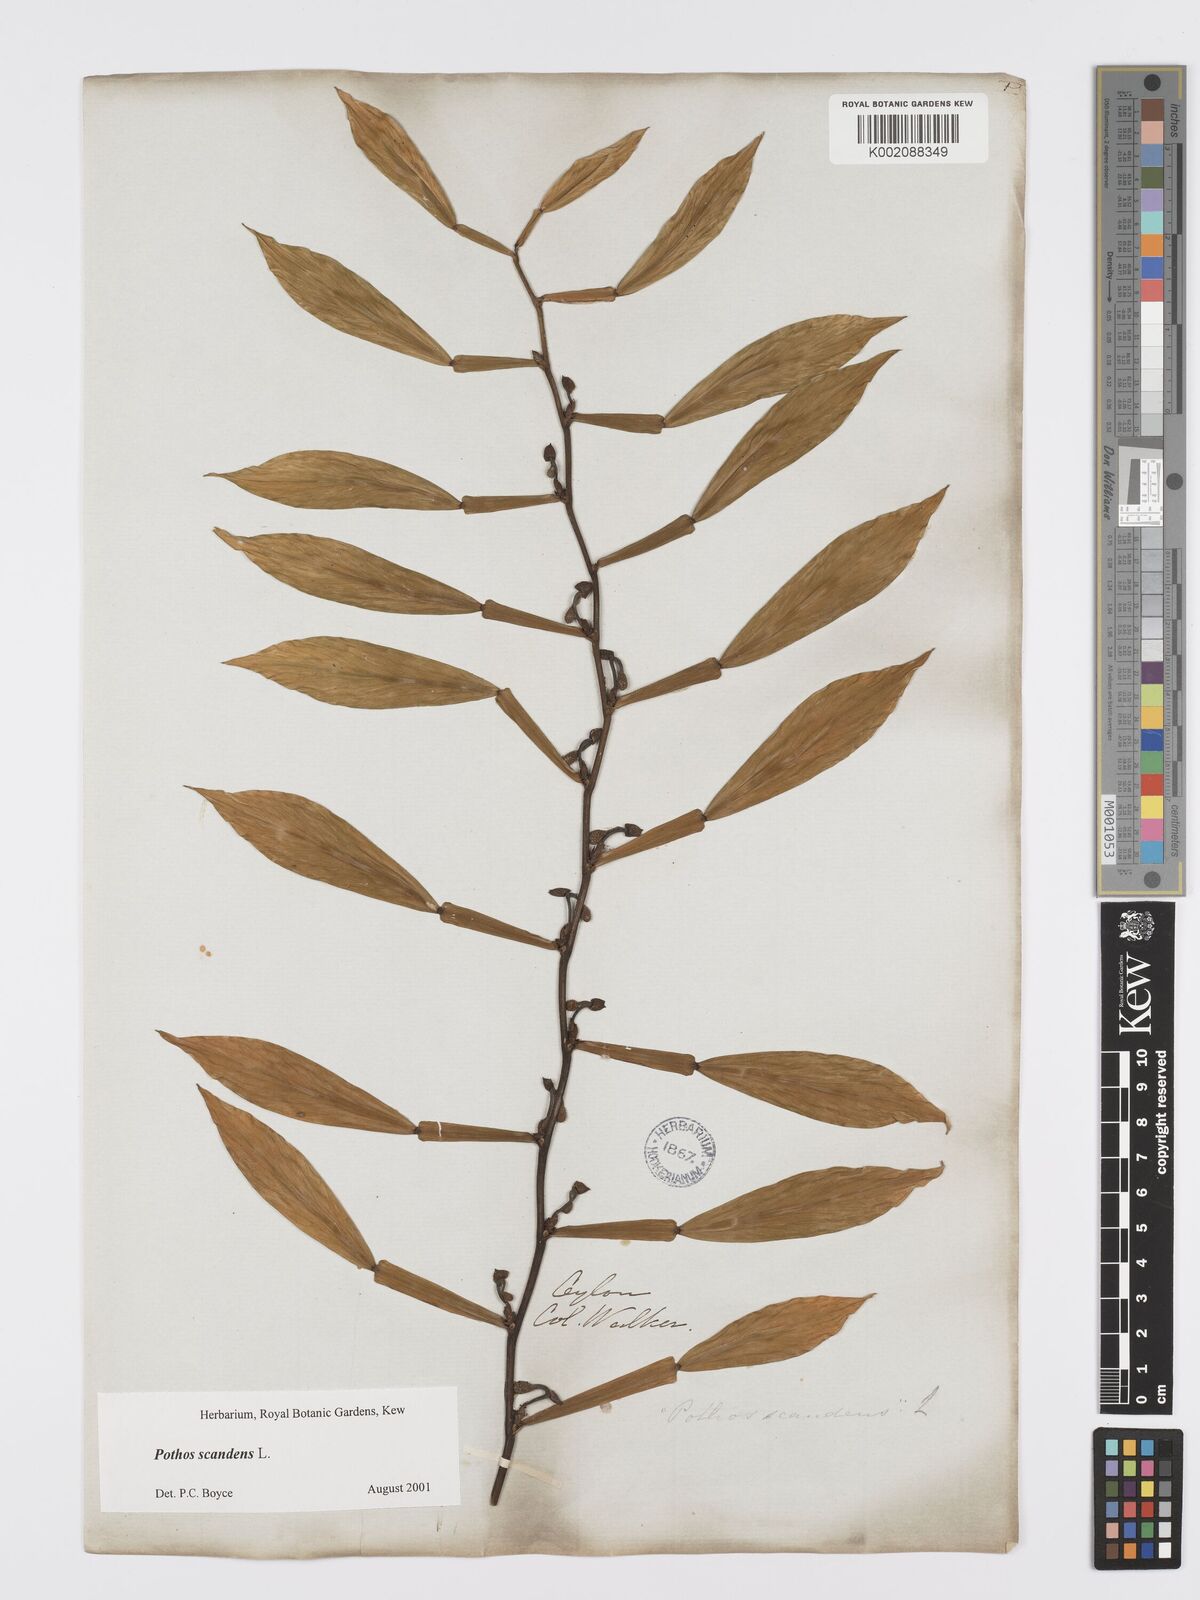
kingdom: Plantae
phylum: Tracheophyta
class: Liliopsida
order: Alismatales
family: Araceae
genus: Pothos
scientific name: Pothos scandens
